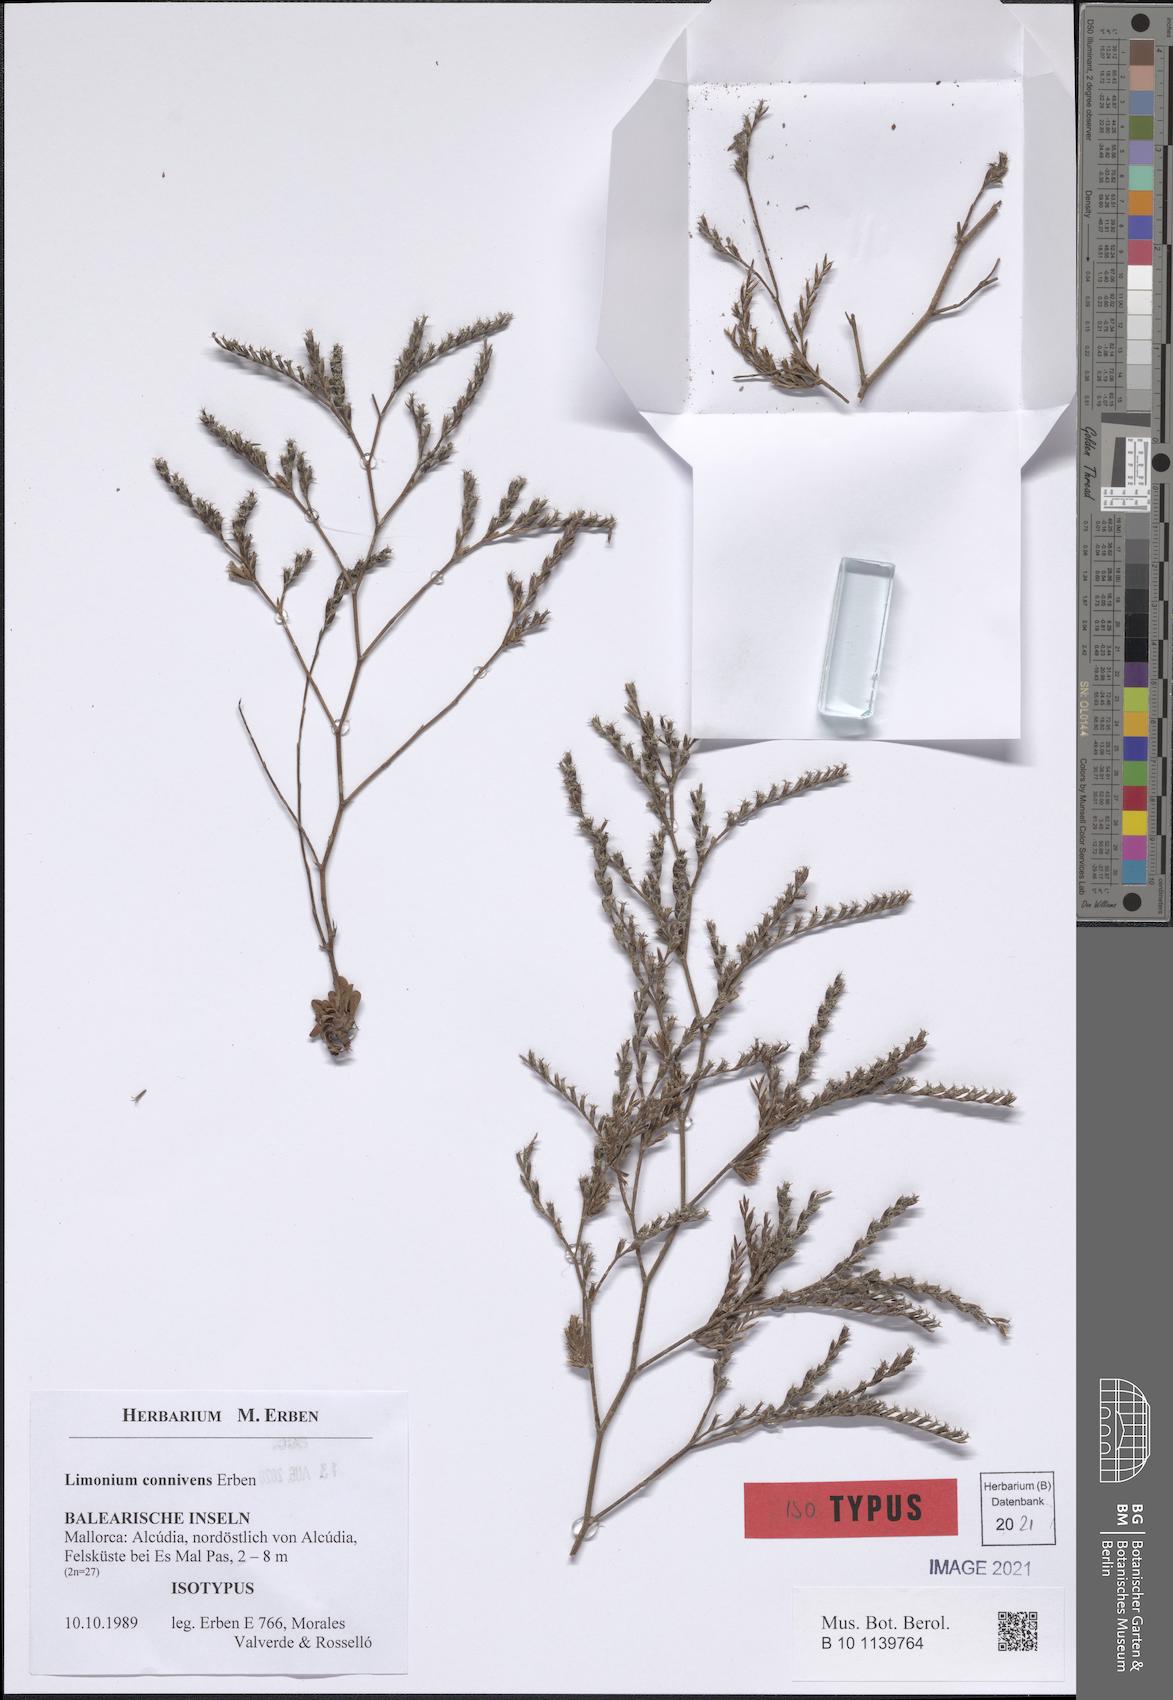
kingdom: Plantae
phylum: Tracheophyta
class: Magnoliopsida
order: Caryophyllales
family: Plumbaginaceae
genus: Limonium
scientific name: Limonium connivens
